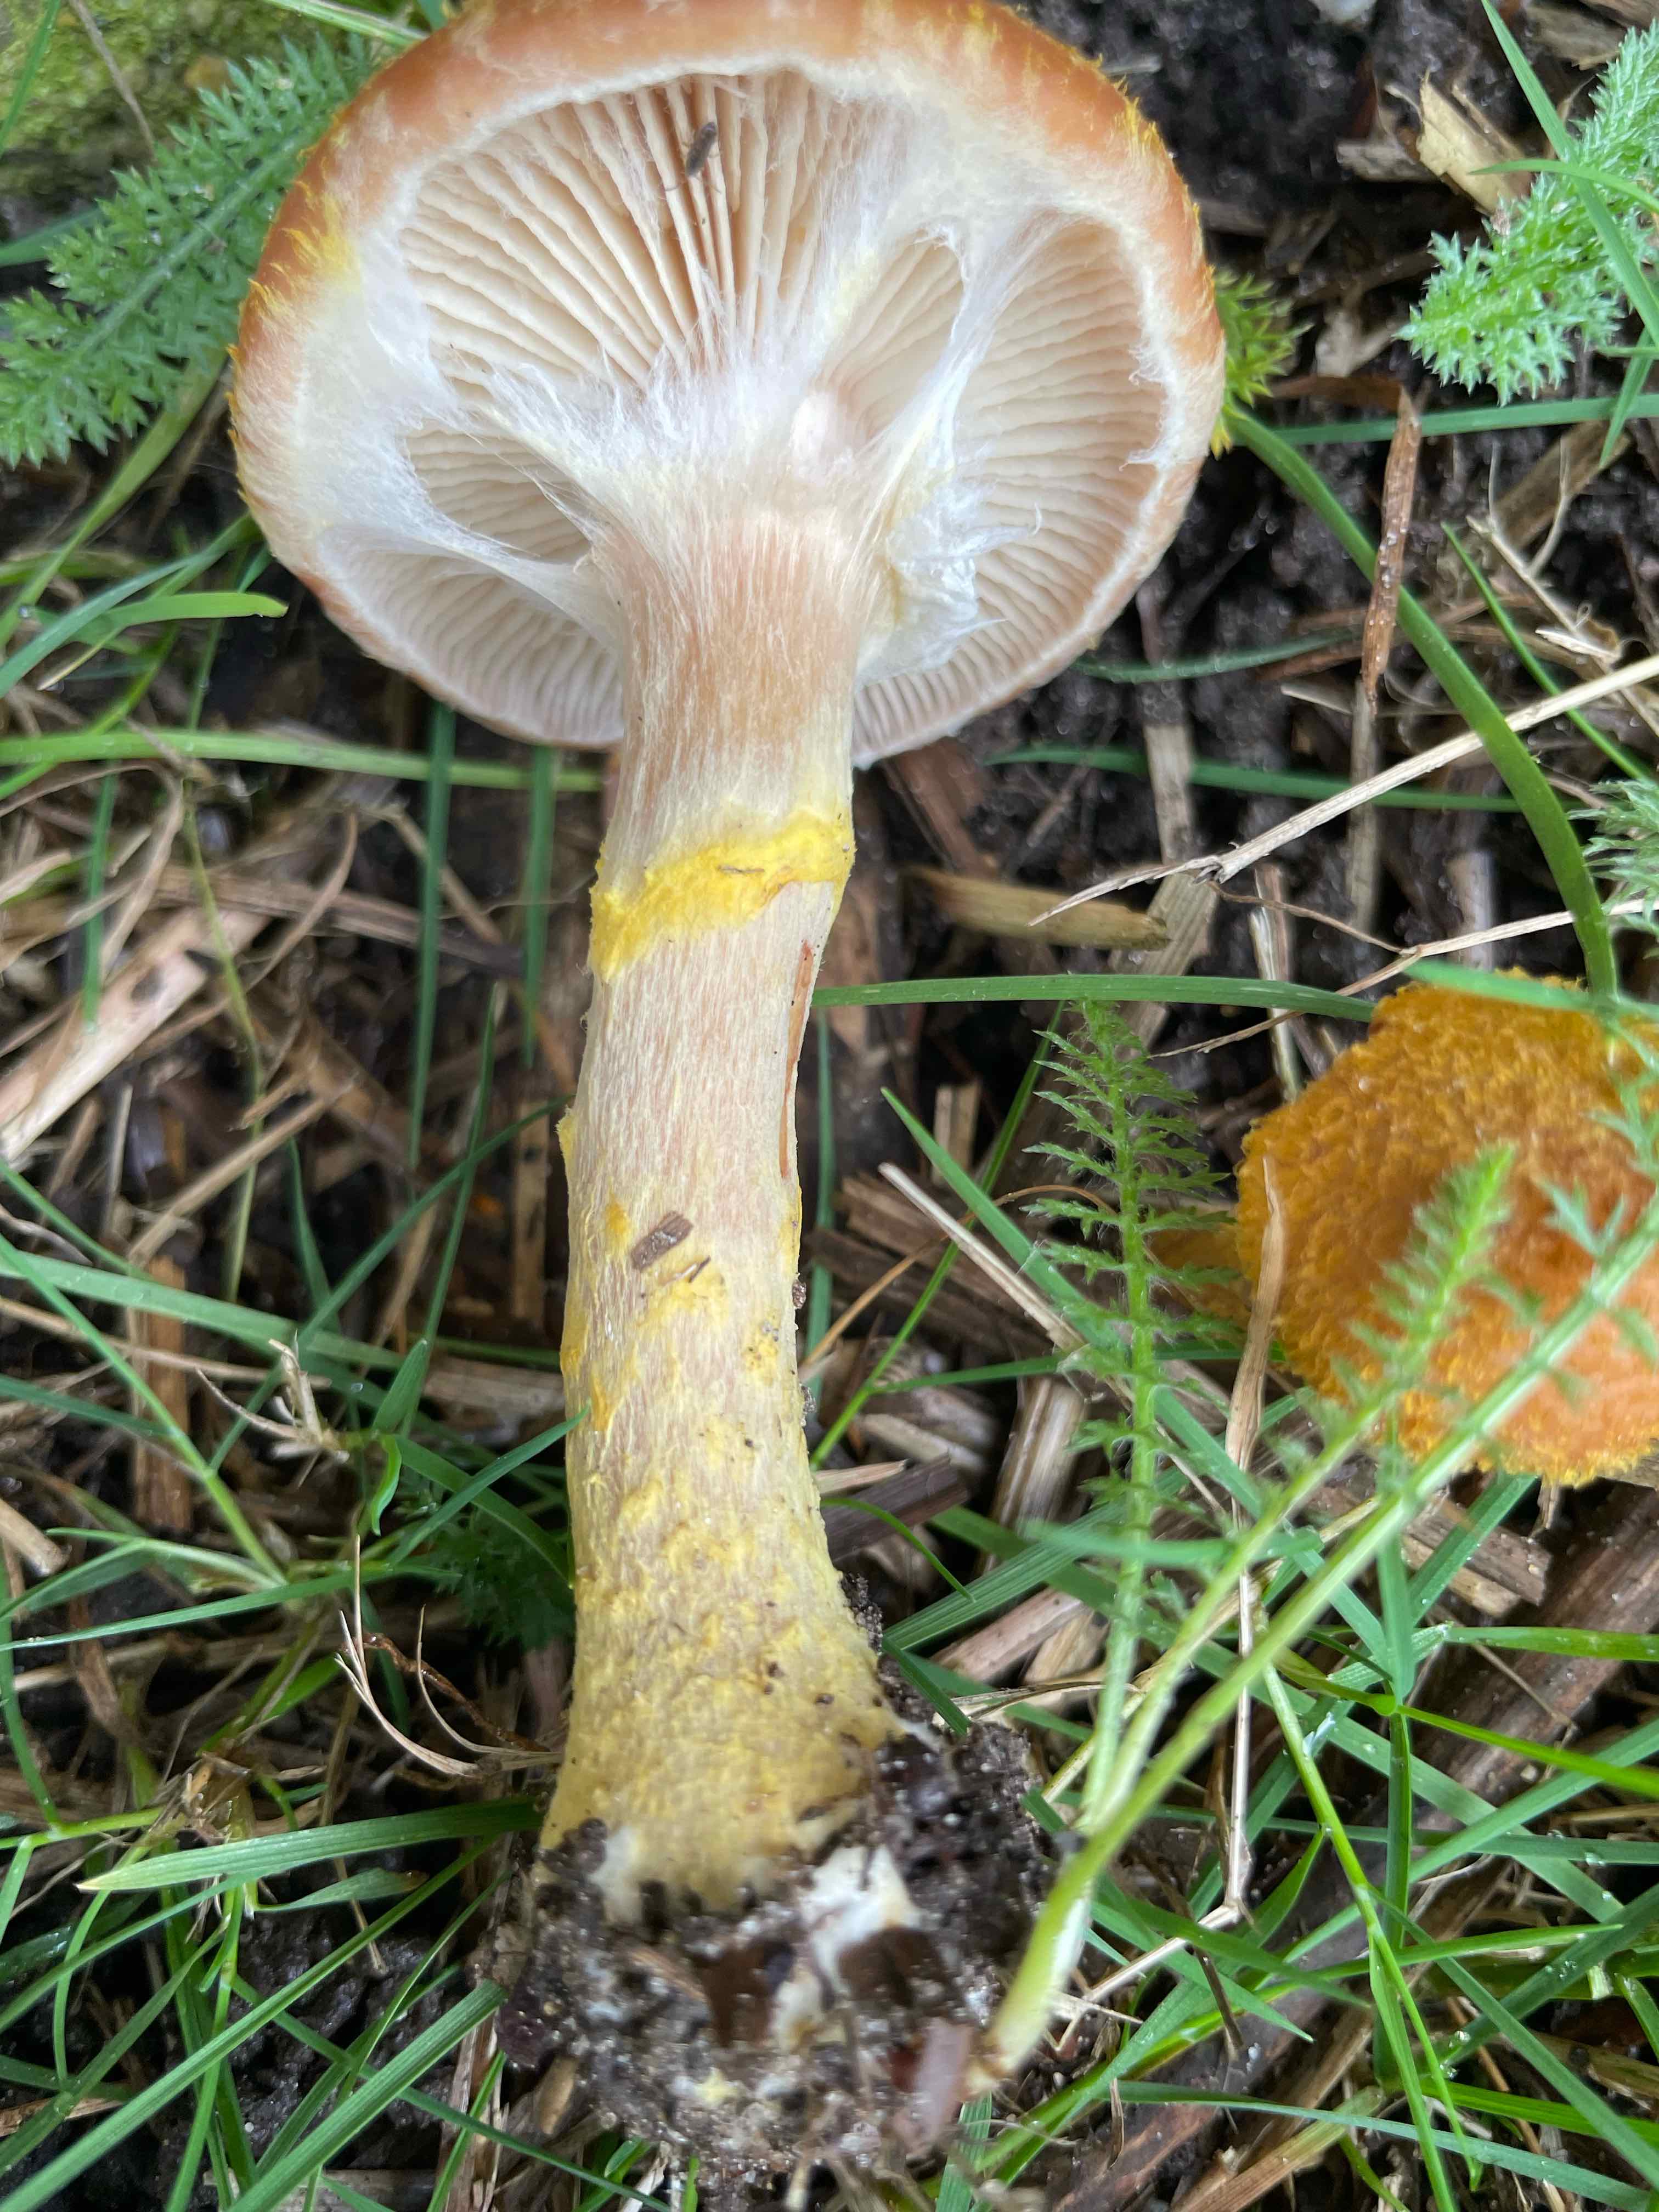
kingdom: Fungi
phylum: Basidiomycota
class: Agaricomycetes
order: Agaricales
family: Physalacriaceae
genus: Armillaria
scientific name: Armillaria lutea
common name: køllestokket honningsvamp
